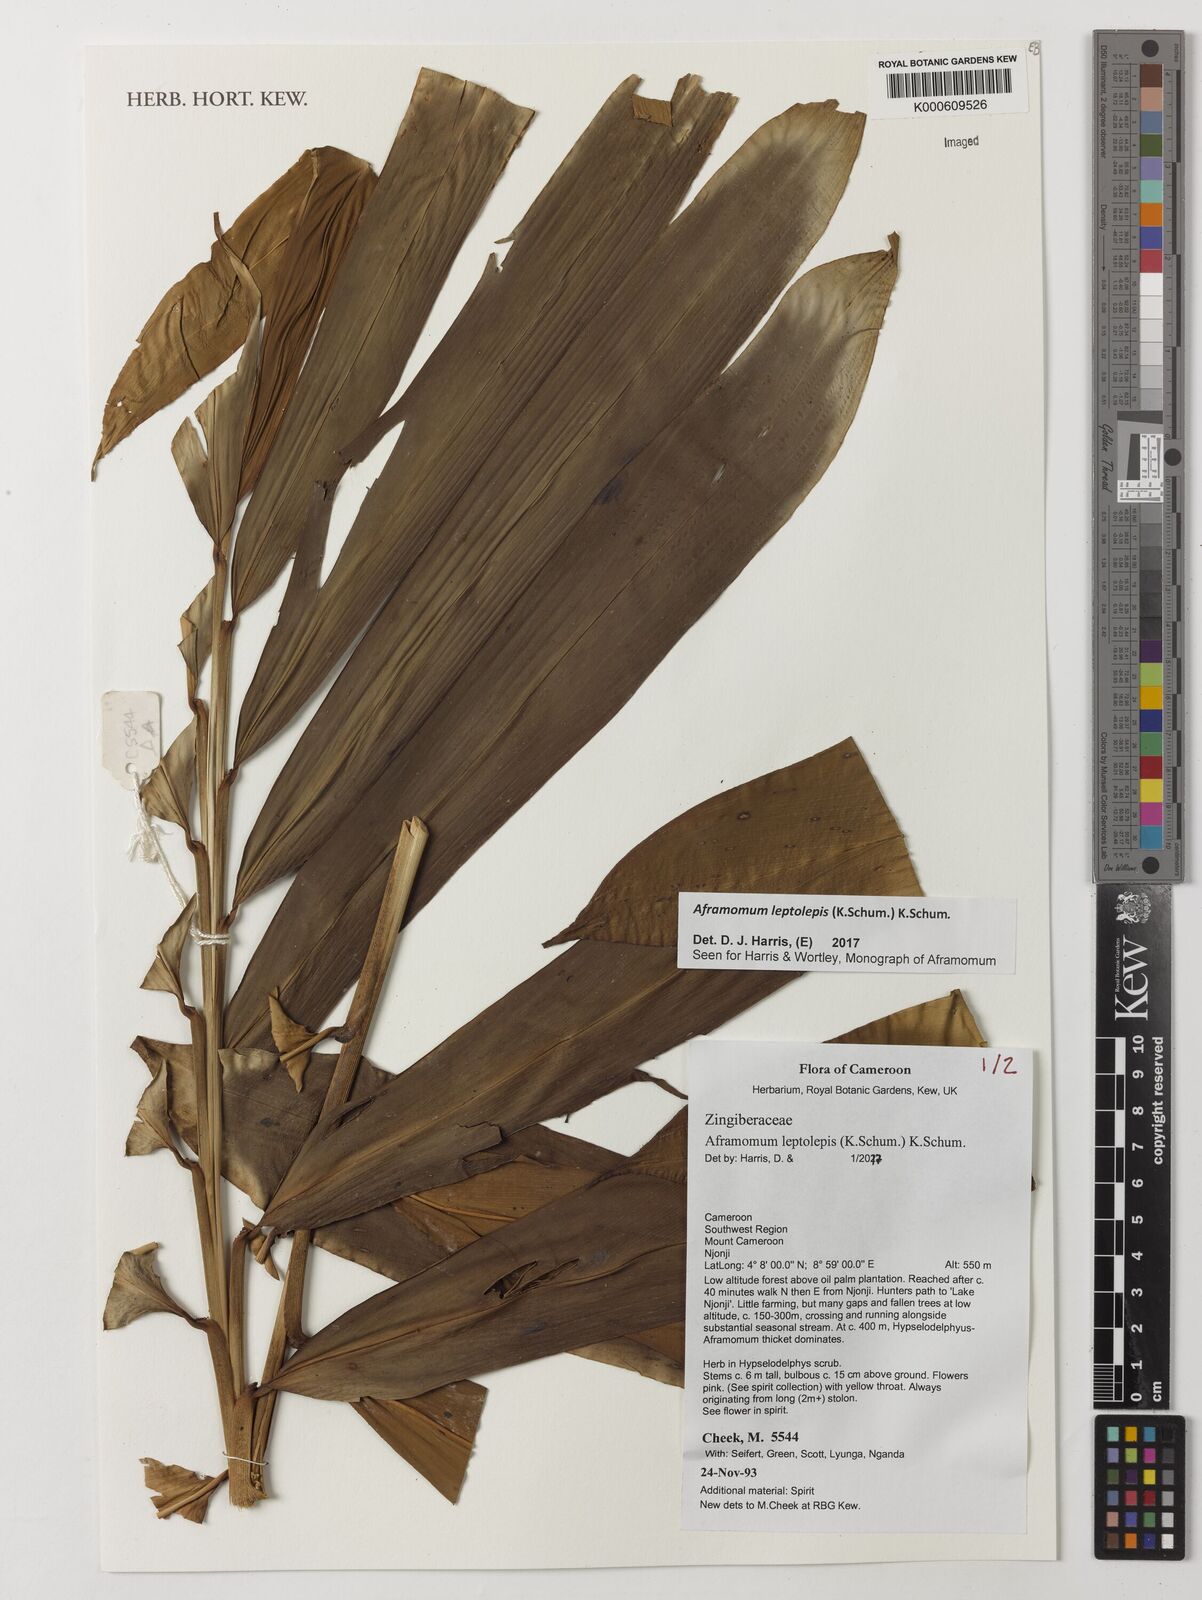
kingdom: Plantae
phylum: Tracheophyta
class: Liliopsida
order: Zingiberales
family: Zingiberaceae
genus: Aframomum
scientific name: Aframomum leptolepis
